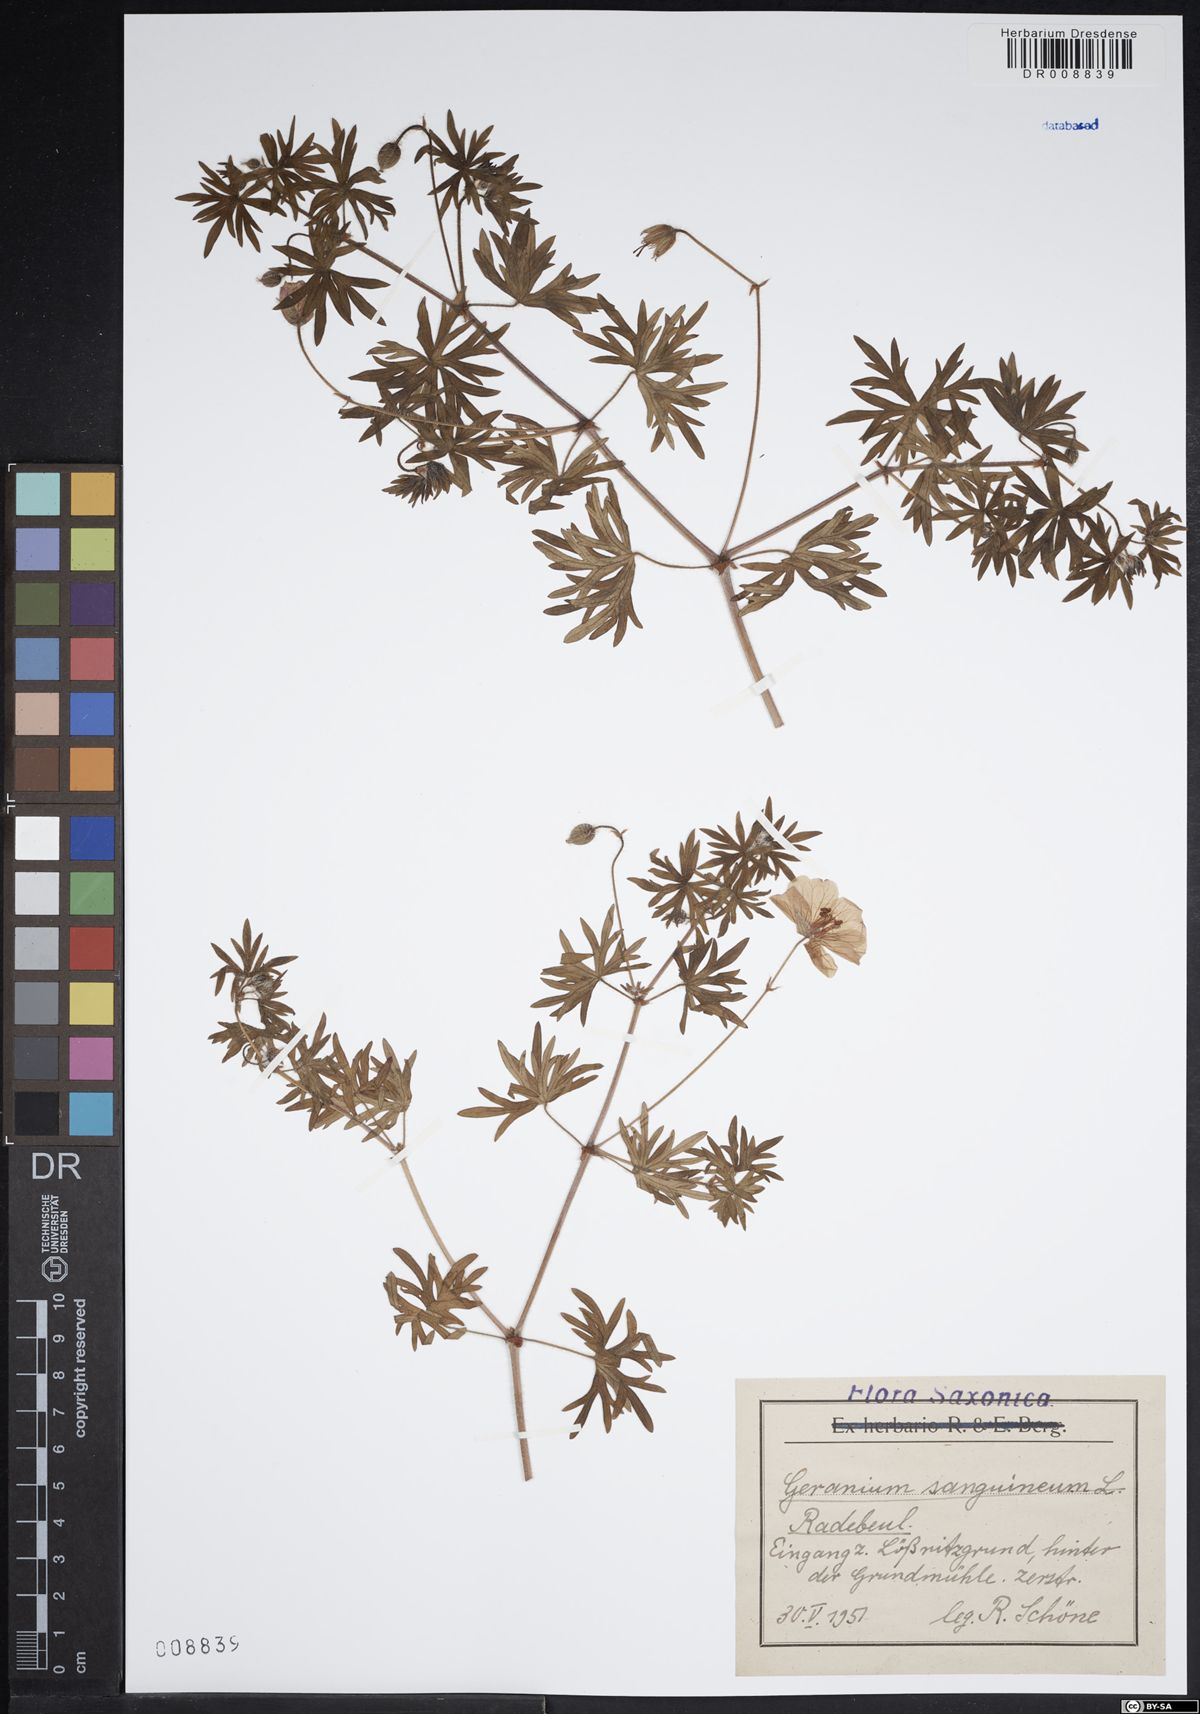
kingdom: Plantae
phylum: Tracheophyta
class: Magnoliopsida
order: Geraniales
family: Geraniaceae
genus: Geranium
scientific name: Geranium sanguineum
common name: Bloody crane's-bill
